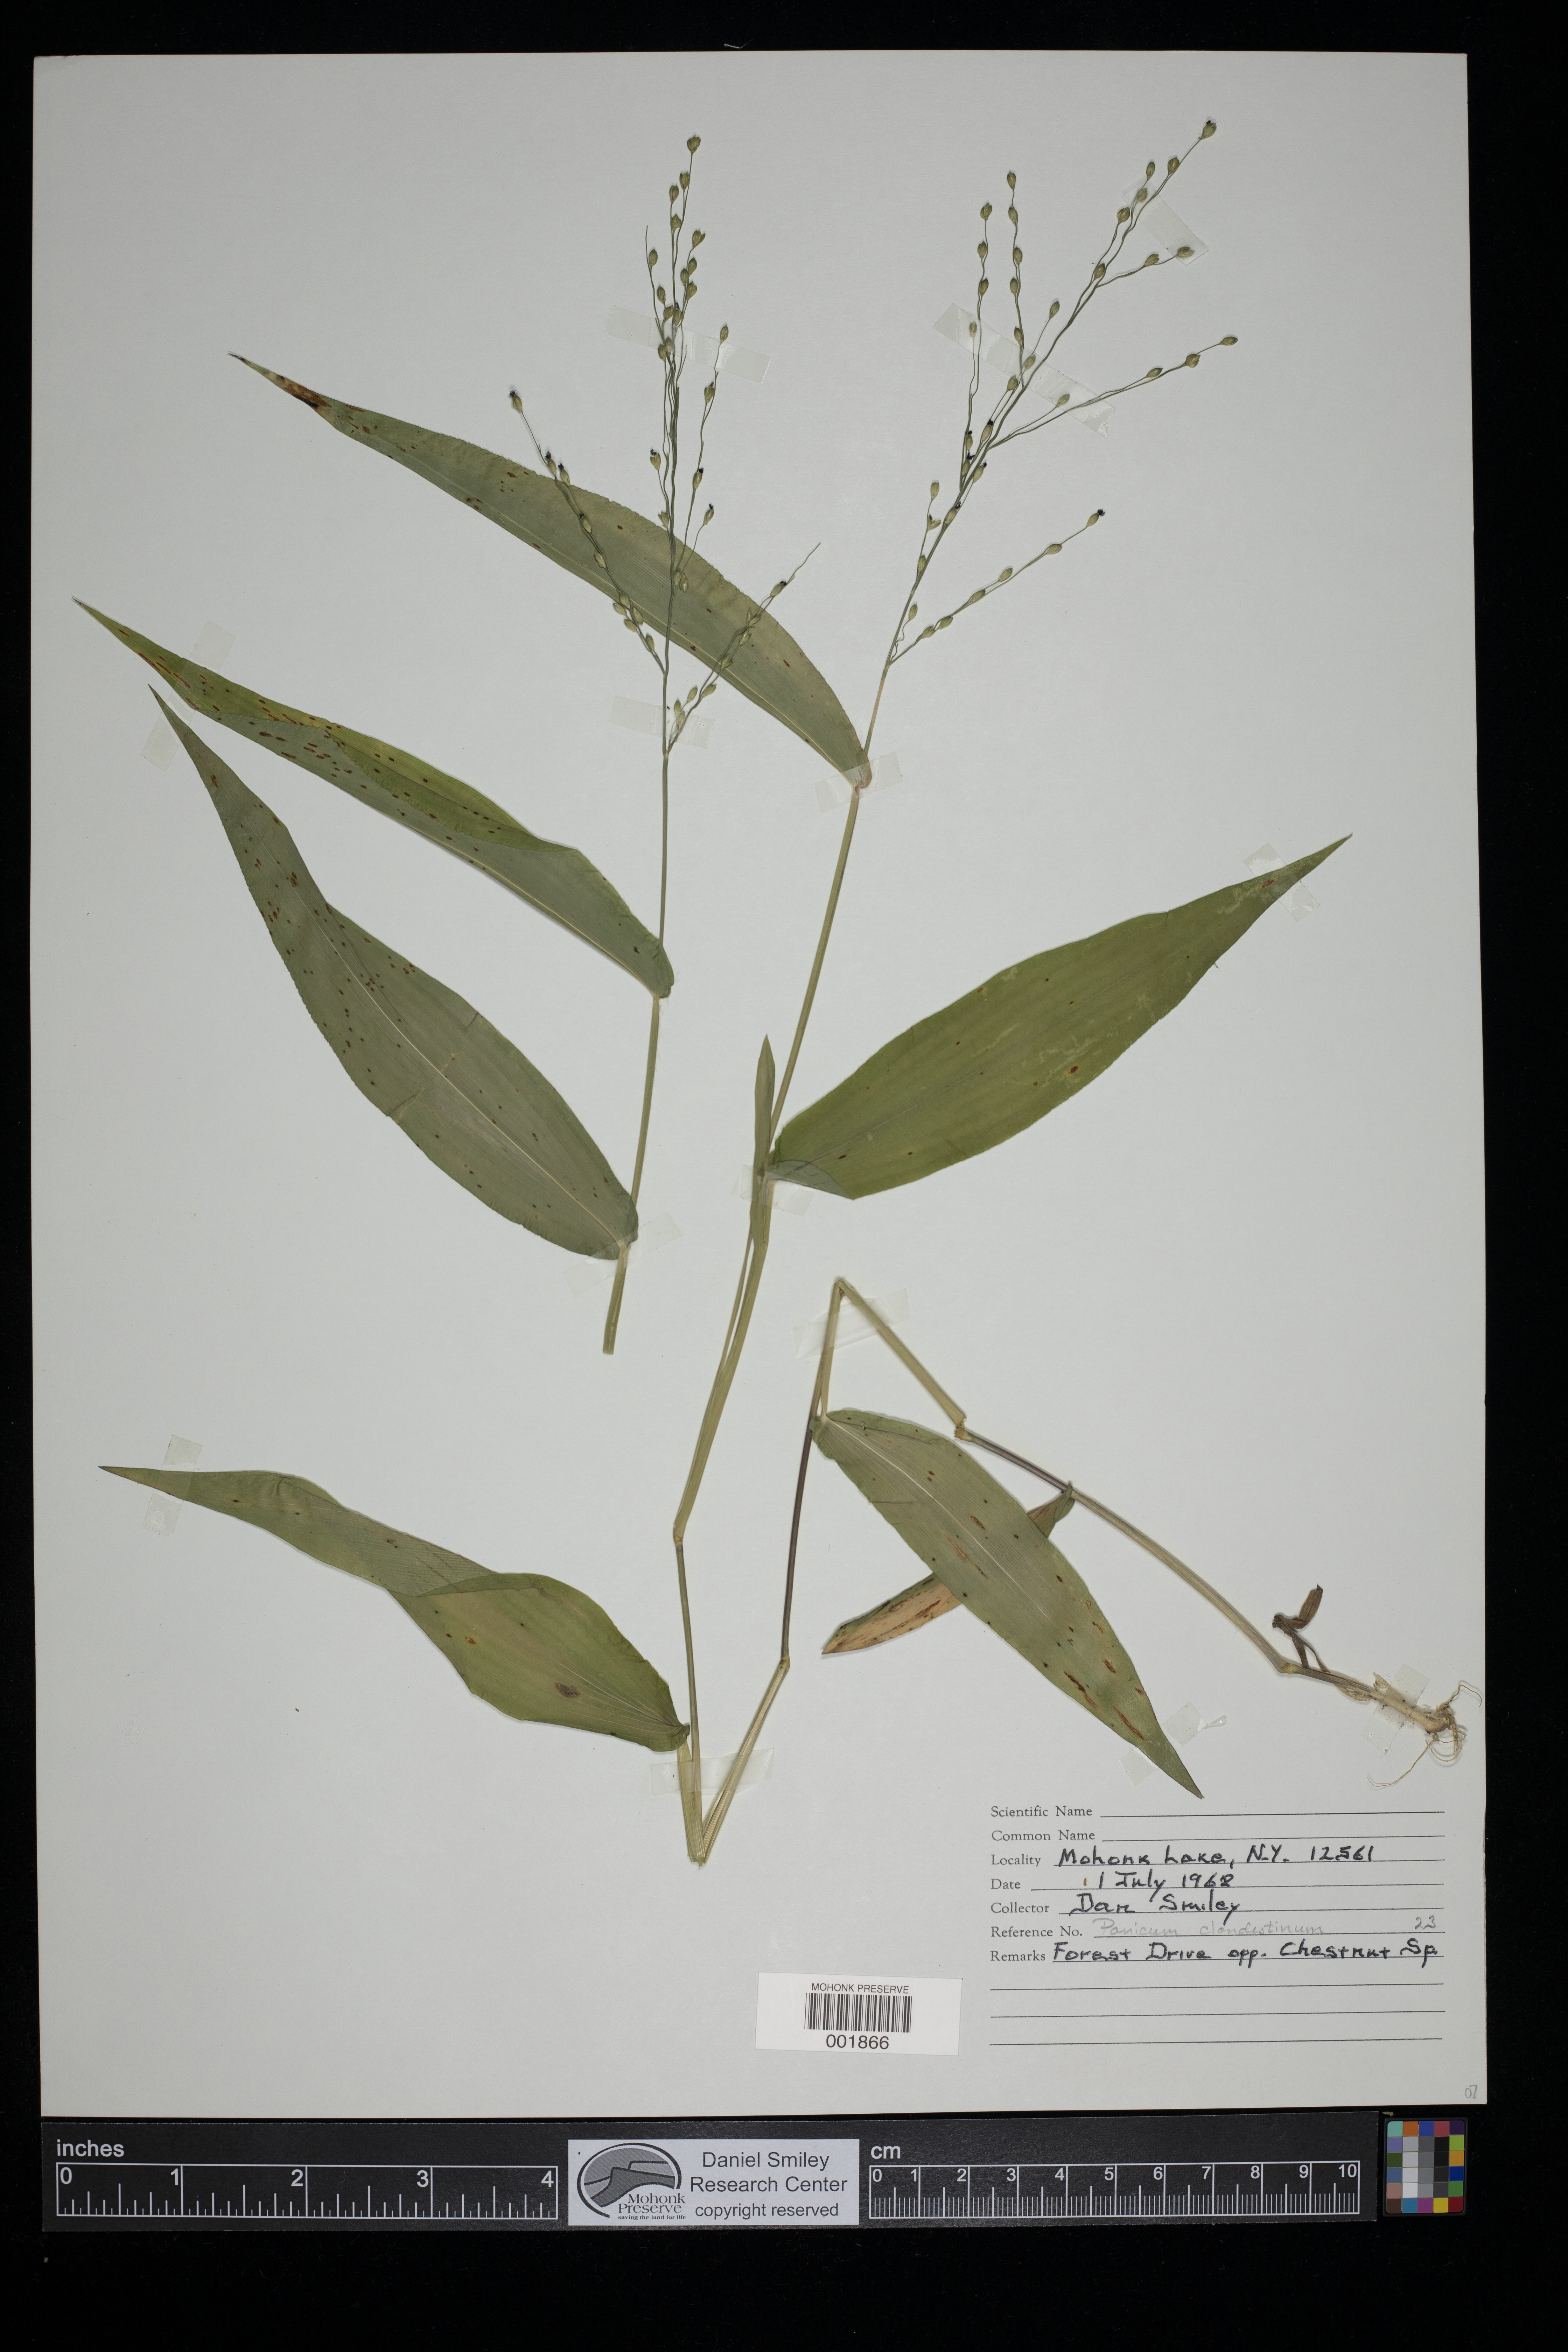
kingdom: Plantae
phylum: Tracheophyta
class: Liliopsida
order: Poales
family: Poaceae
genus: Dichanthelium
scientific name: Dichanthelium clandestinum
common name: Deer-tongue grass
